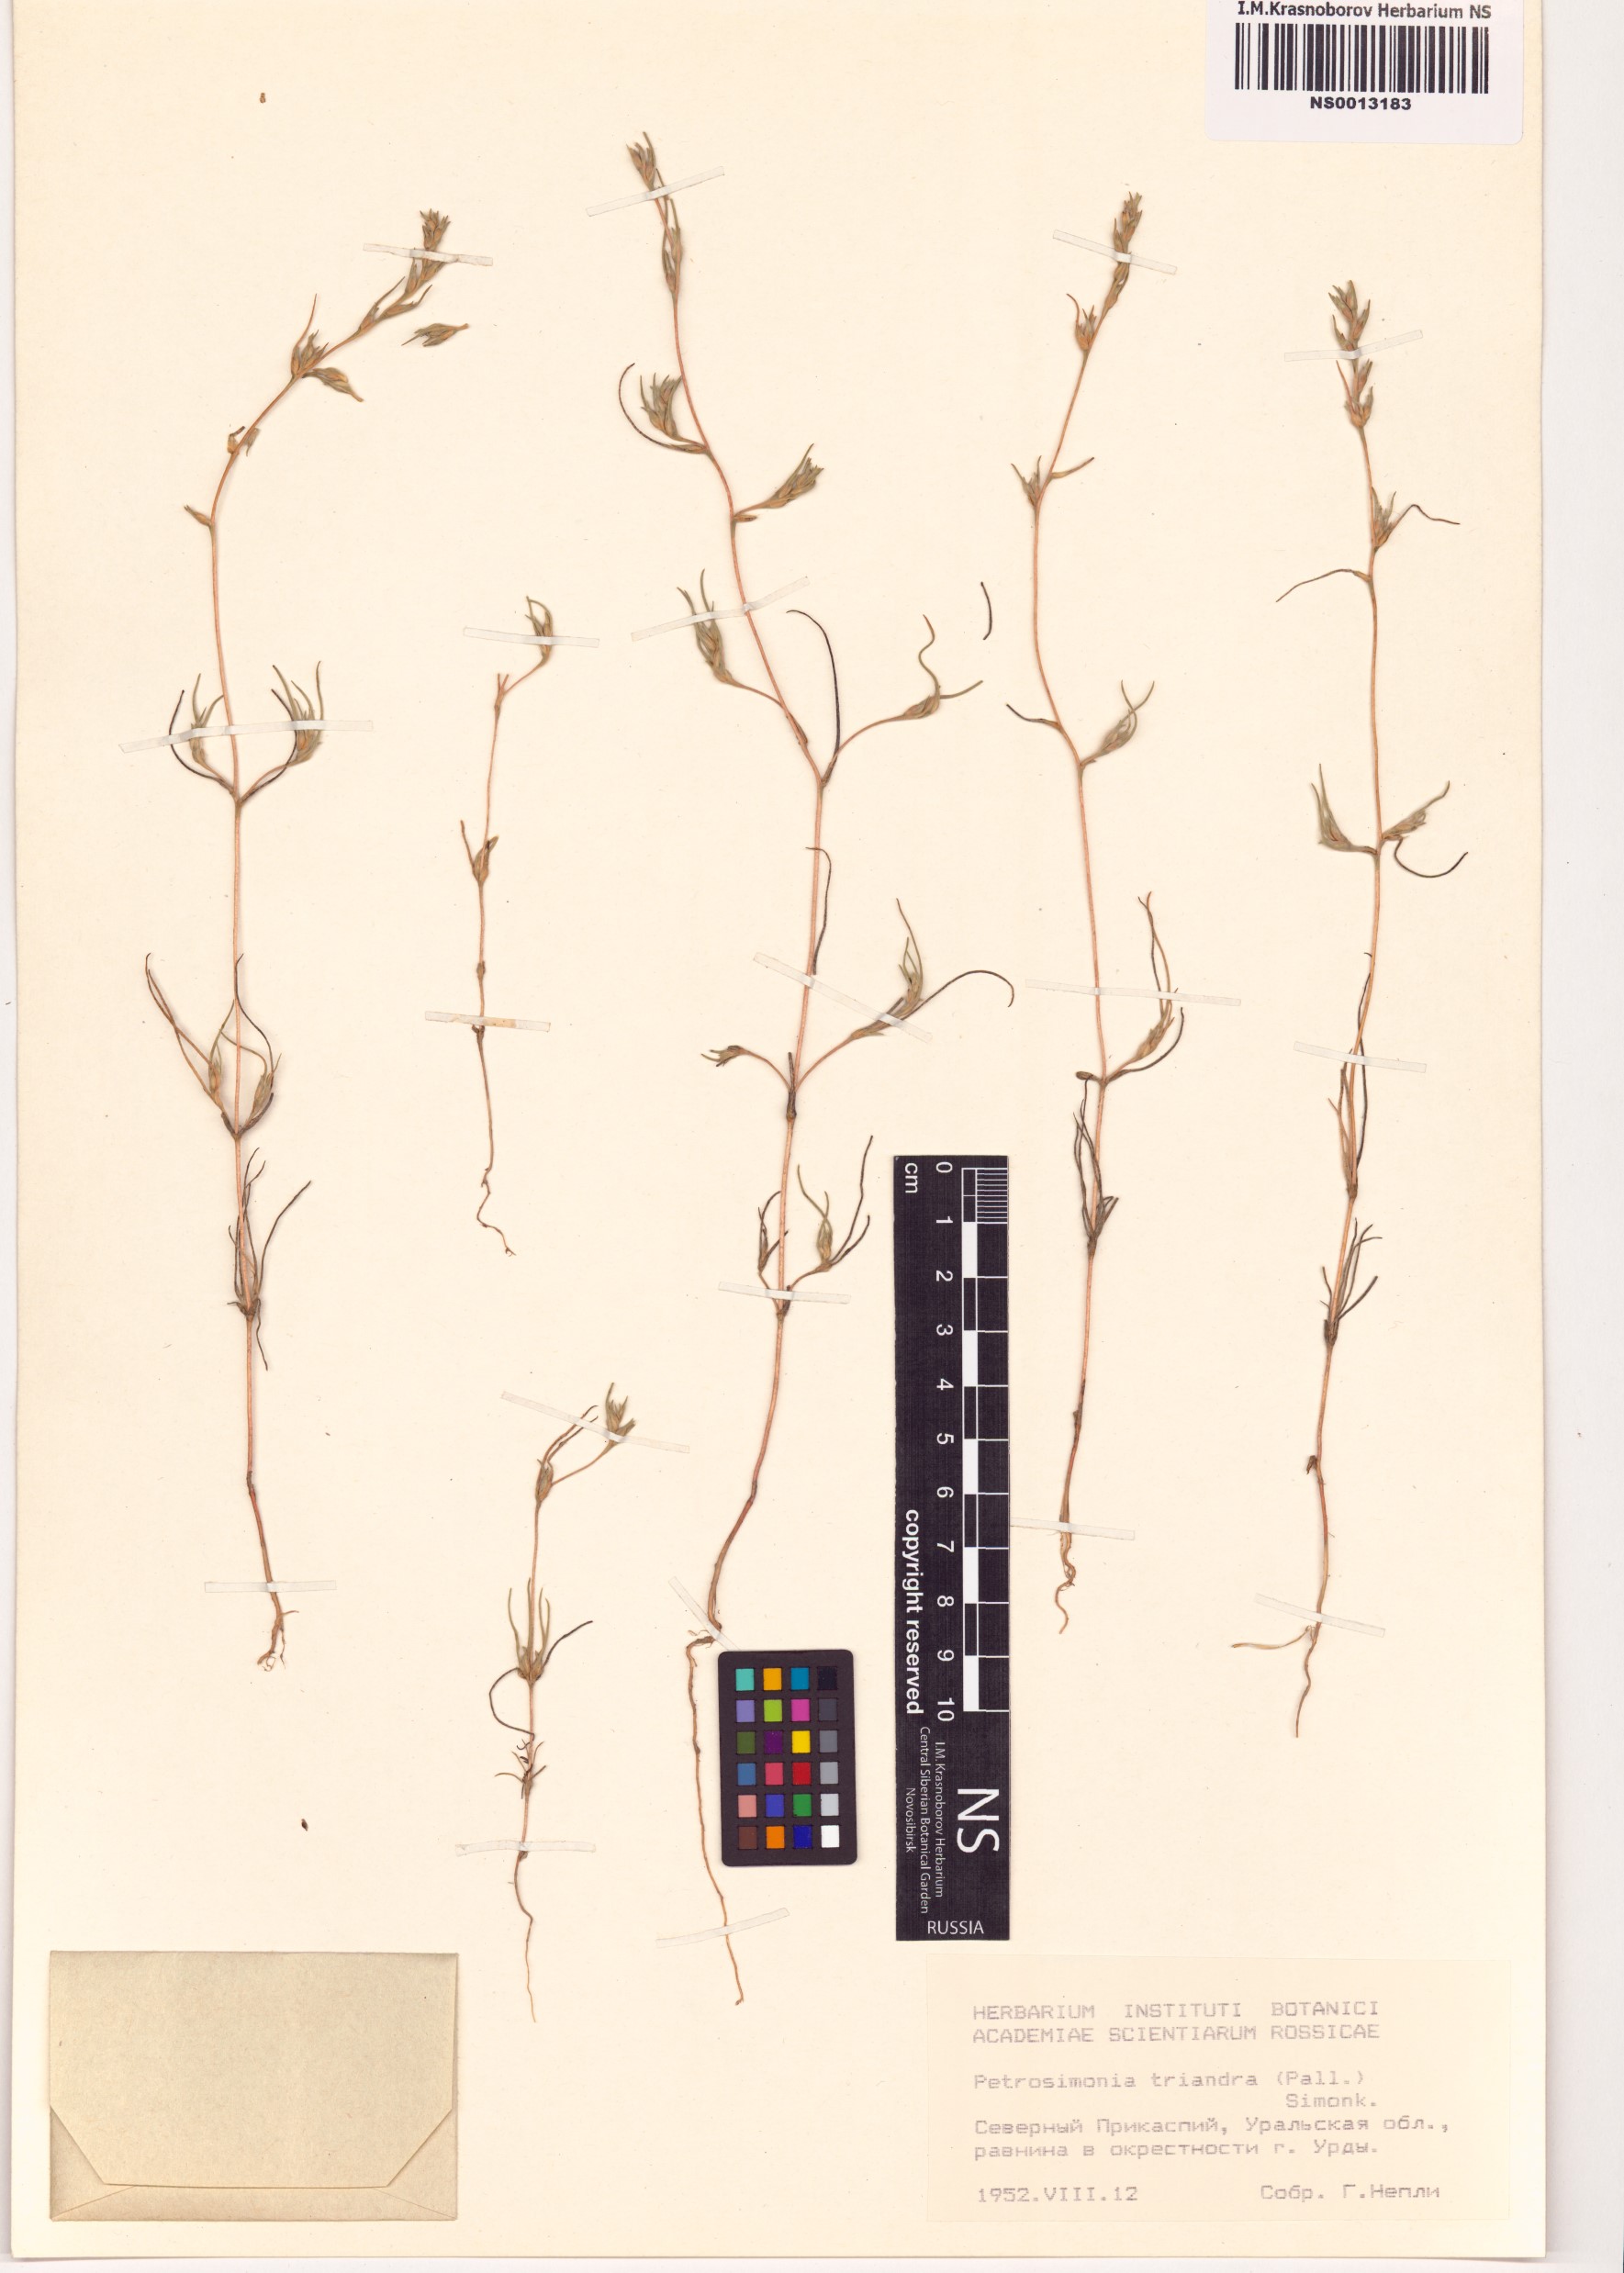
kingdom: Plantae
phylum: Tracheophyta
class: Magnoliopsida
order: Caryophyllales
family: Amaranthaceae
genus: Petrosimonia
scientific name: Petrosimonia triandra
